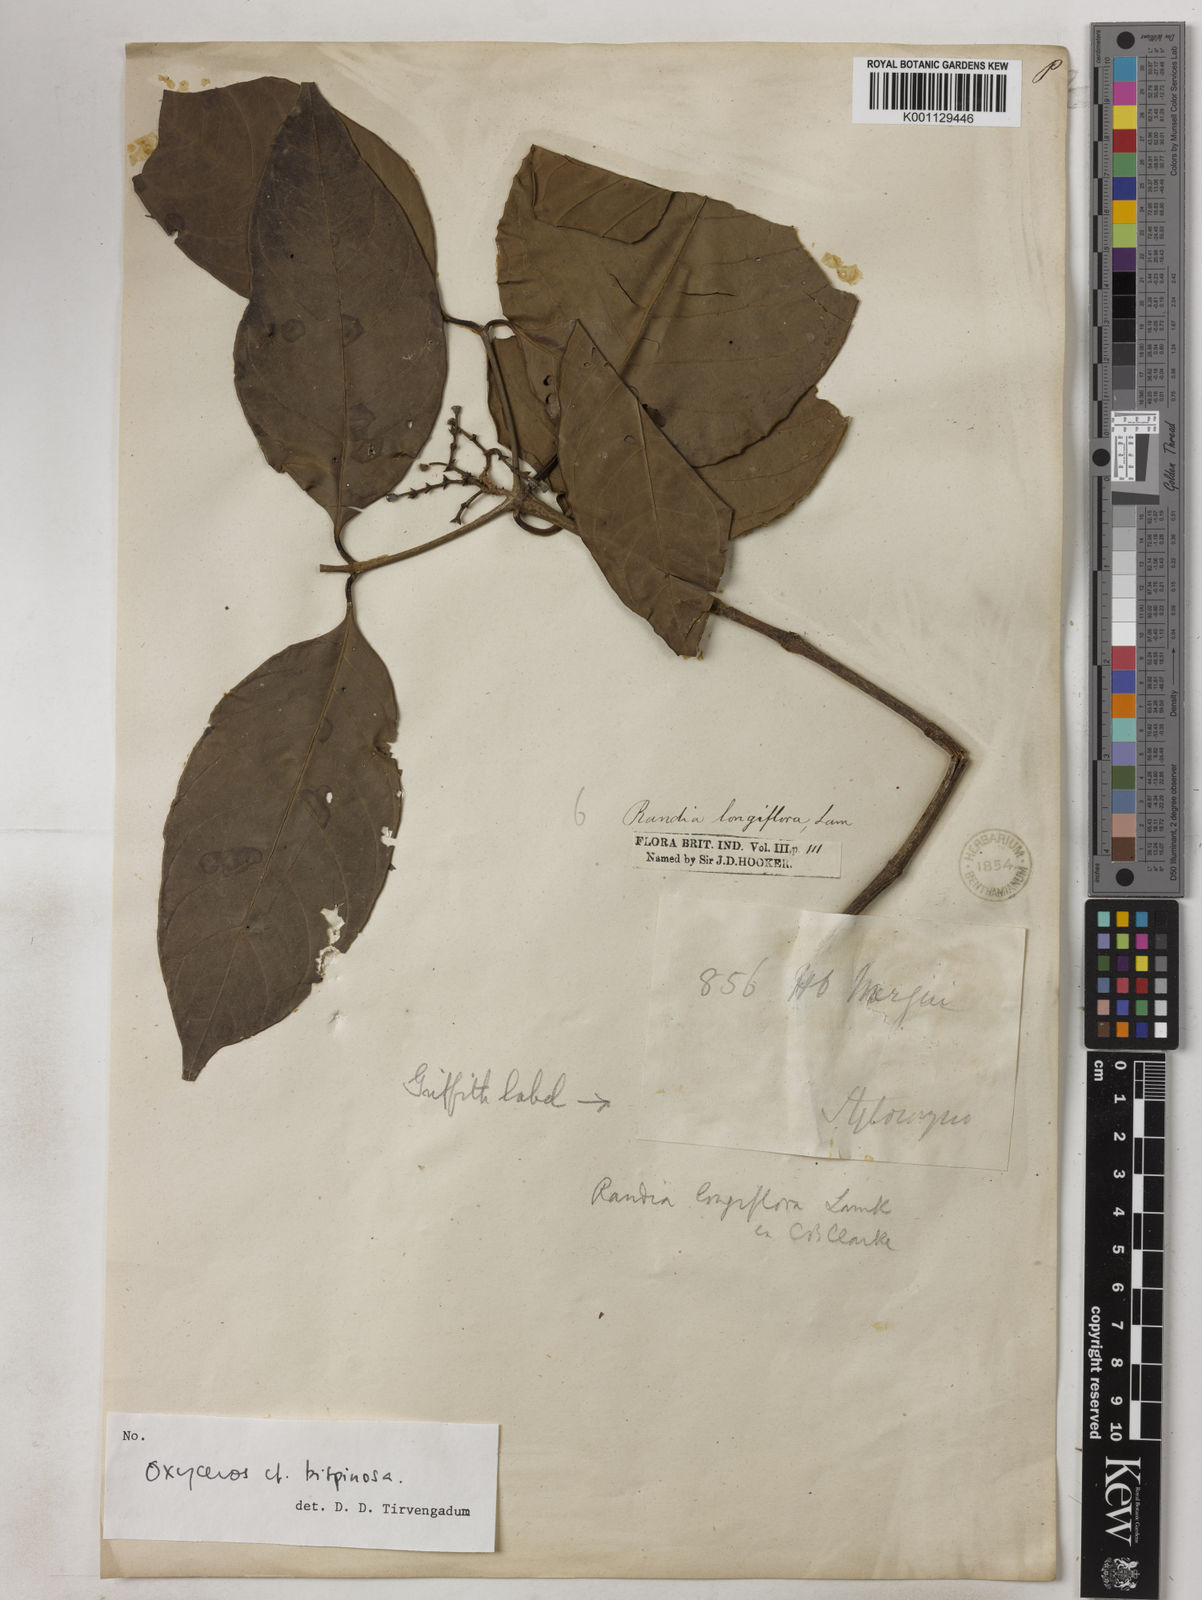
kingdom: Plantae
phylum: Tracheophyta
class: Magnoliopsida
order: Gentianales
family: Rubiaceae
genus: Oxyceros
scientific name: Oxyceros bispinosus
